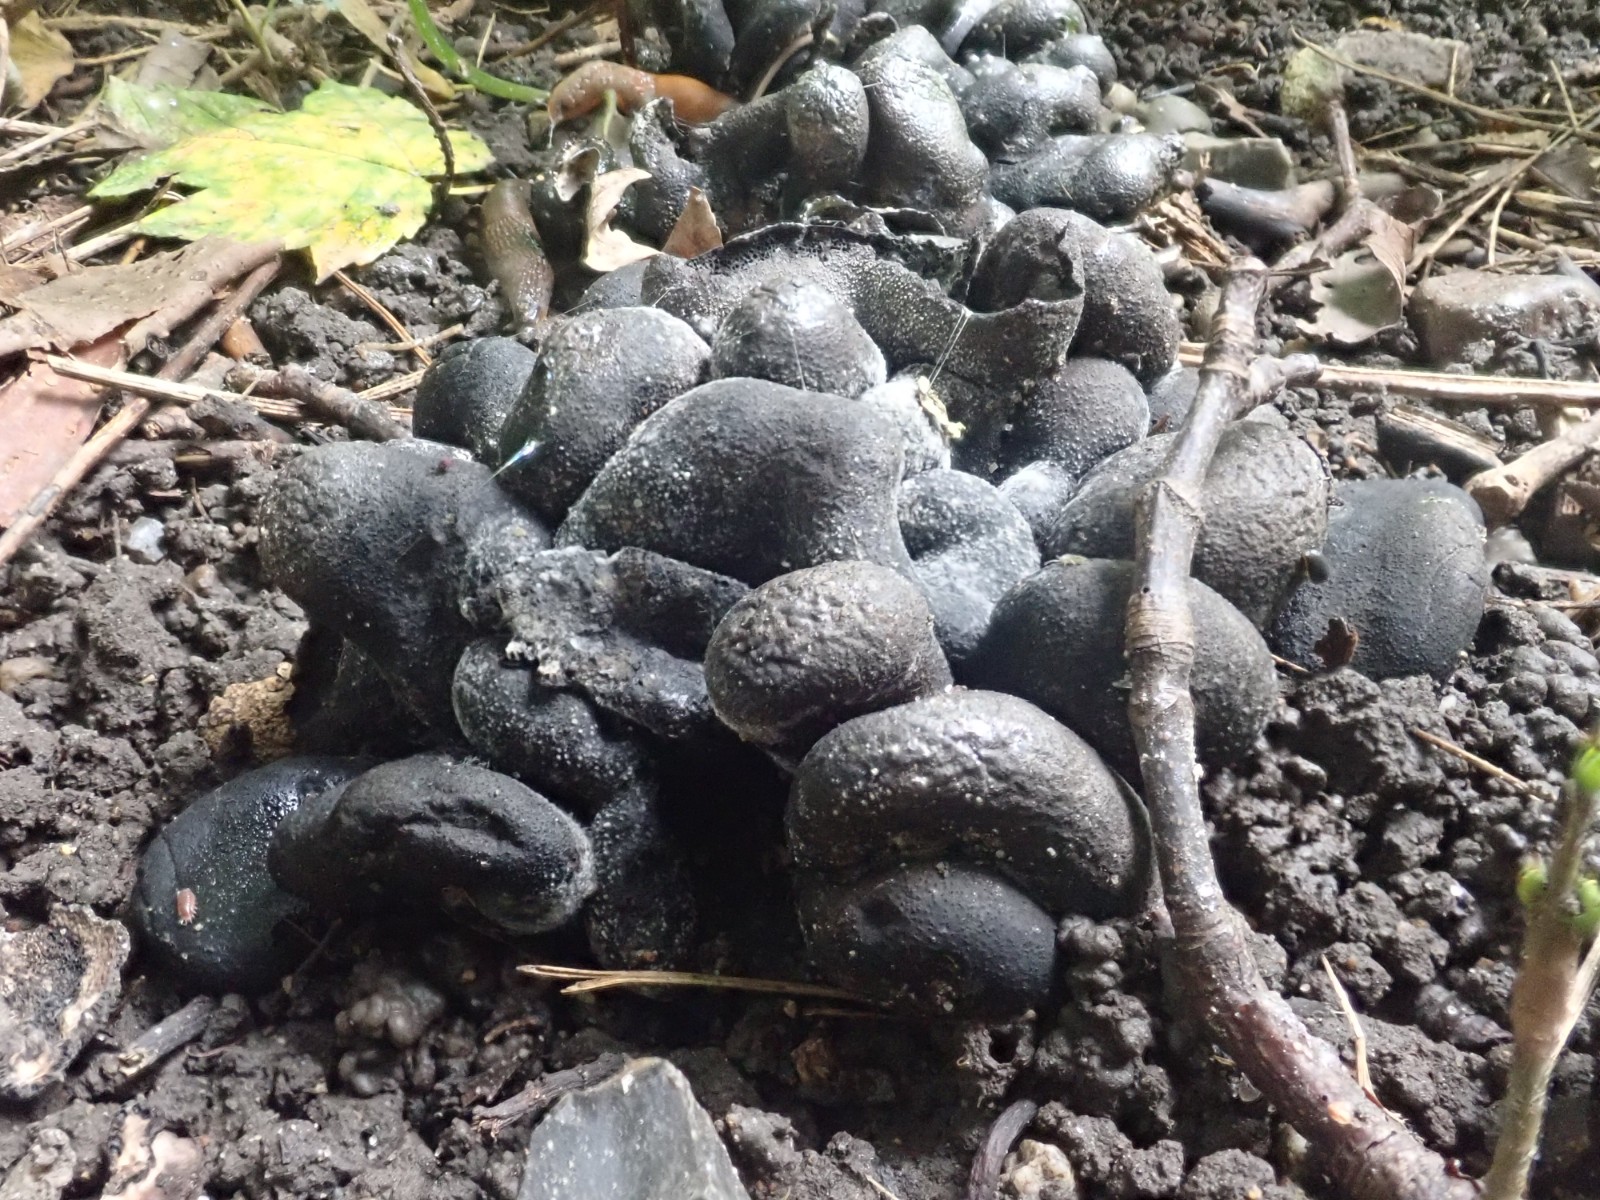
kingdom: Fungi
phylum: Ascomycota
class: Sordariomycetes
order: Xylariales
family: Xylariaceae
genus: Xylaria
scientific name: Xylaria polymorpha
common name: kølle-stødsvamp
